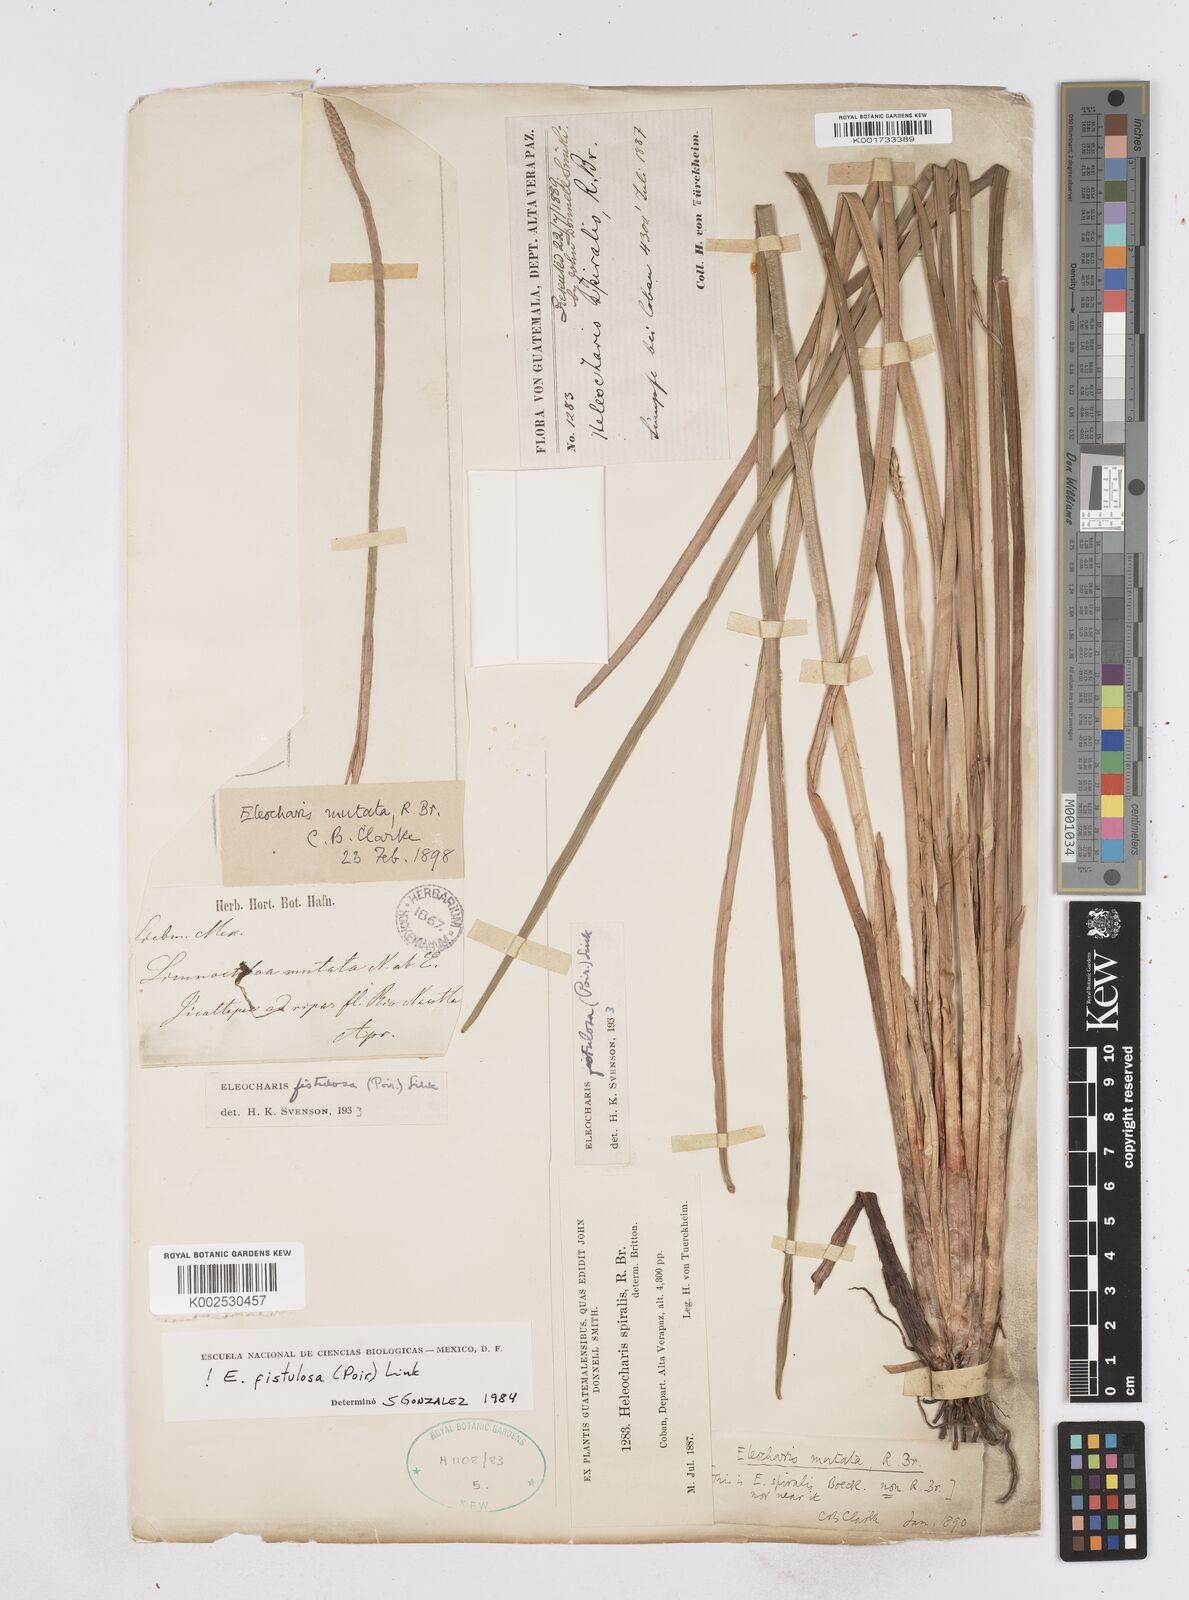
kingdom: Plantae
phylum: Tracheophyta
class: Liliopsida
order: Poales
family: Cyperaceae
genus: Eleocharis
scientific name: Eleocharis acutangula
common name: Acute spikerush
